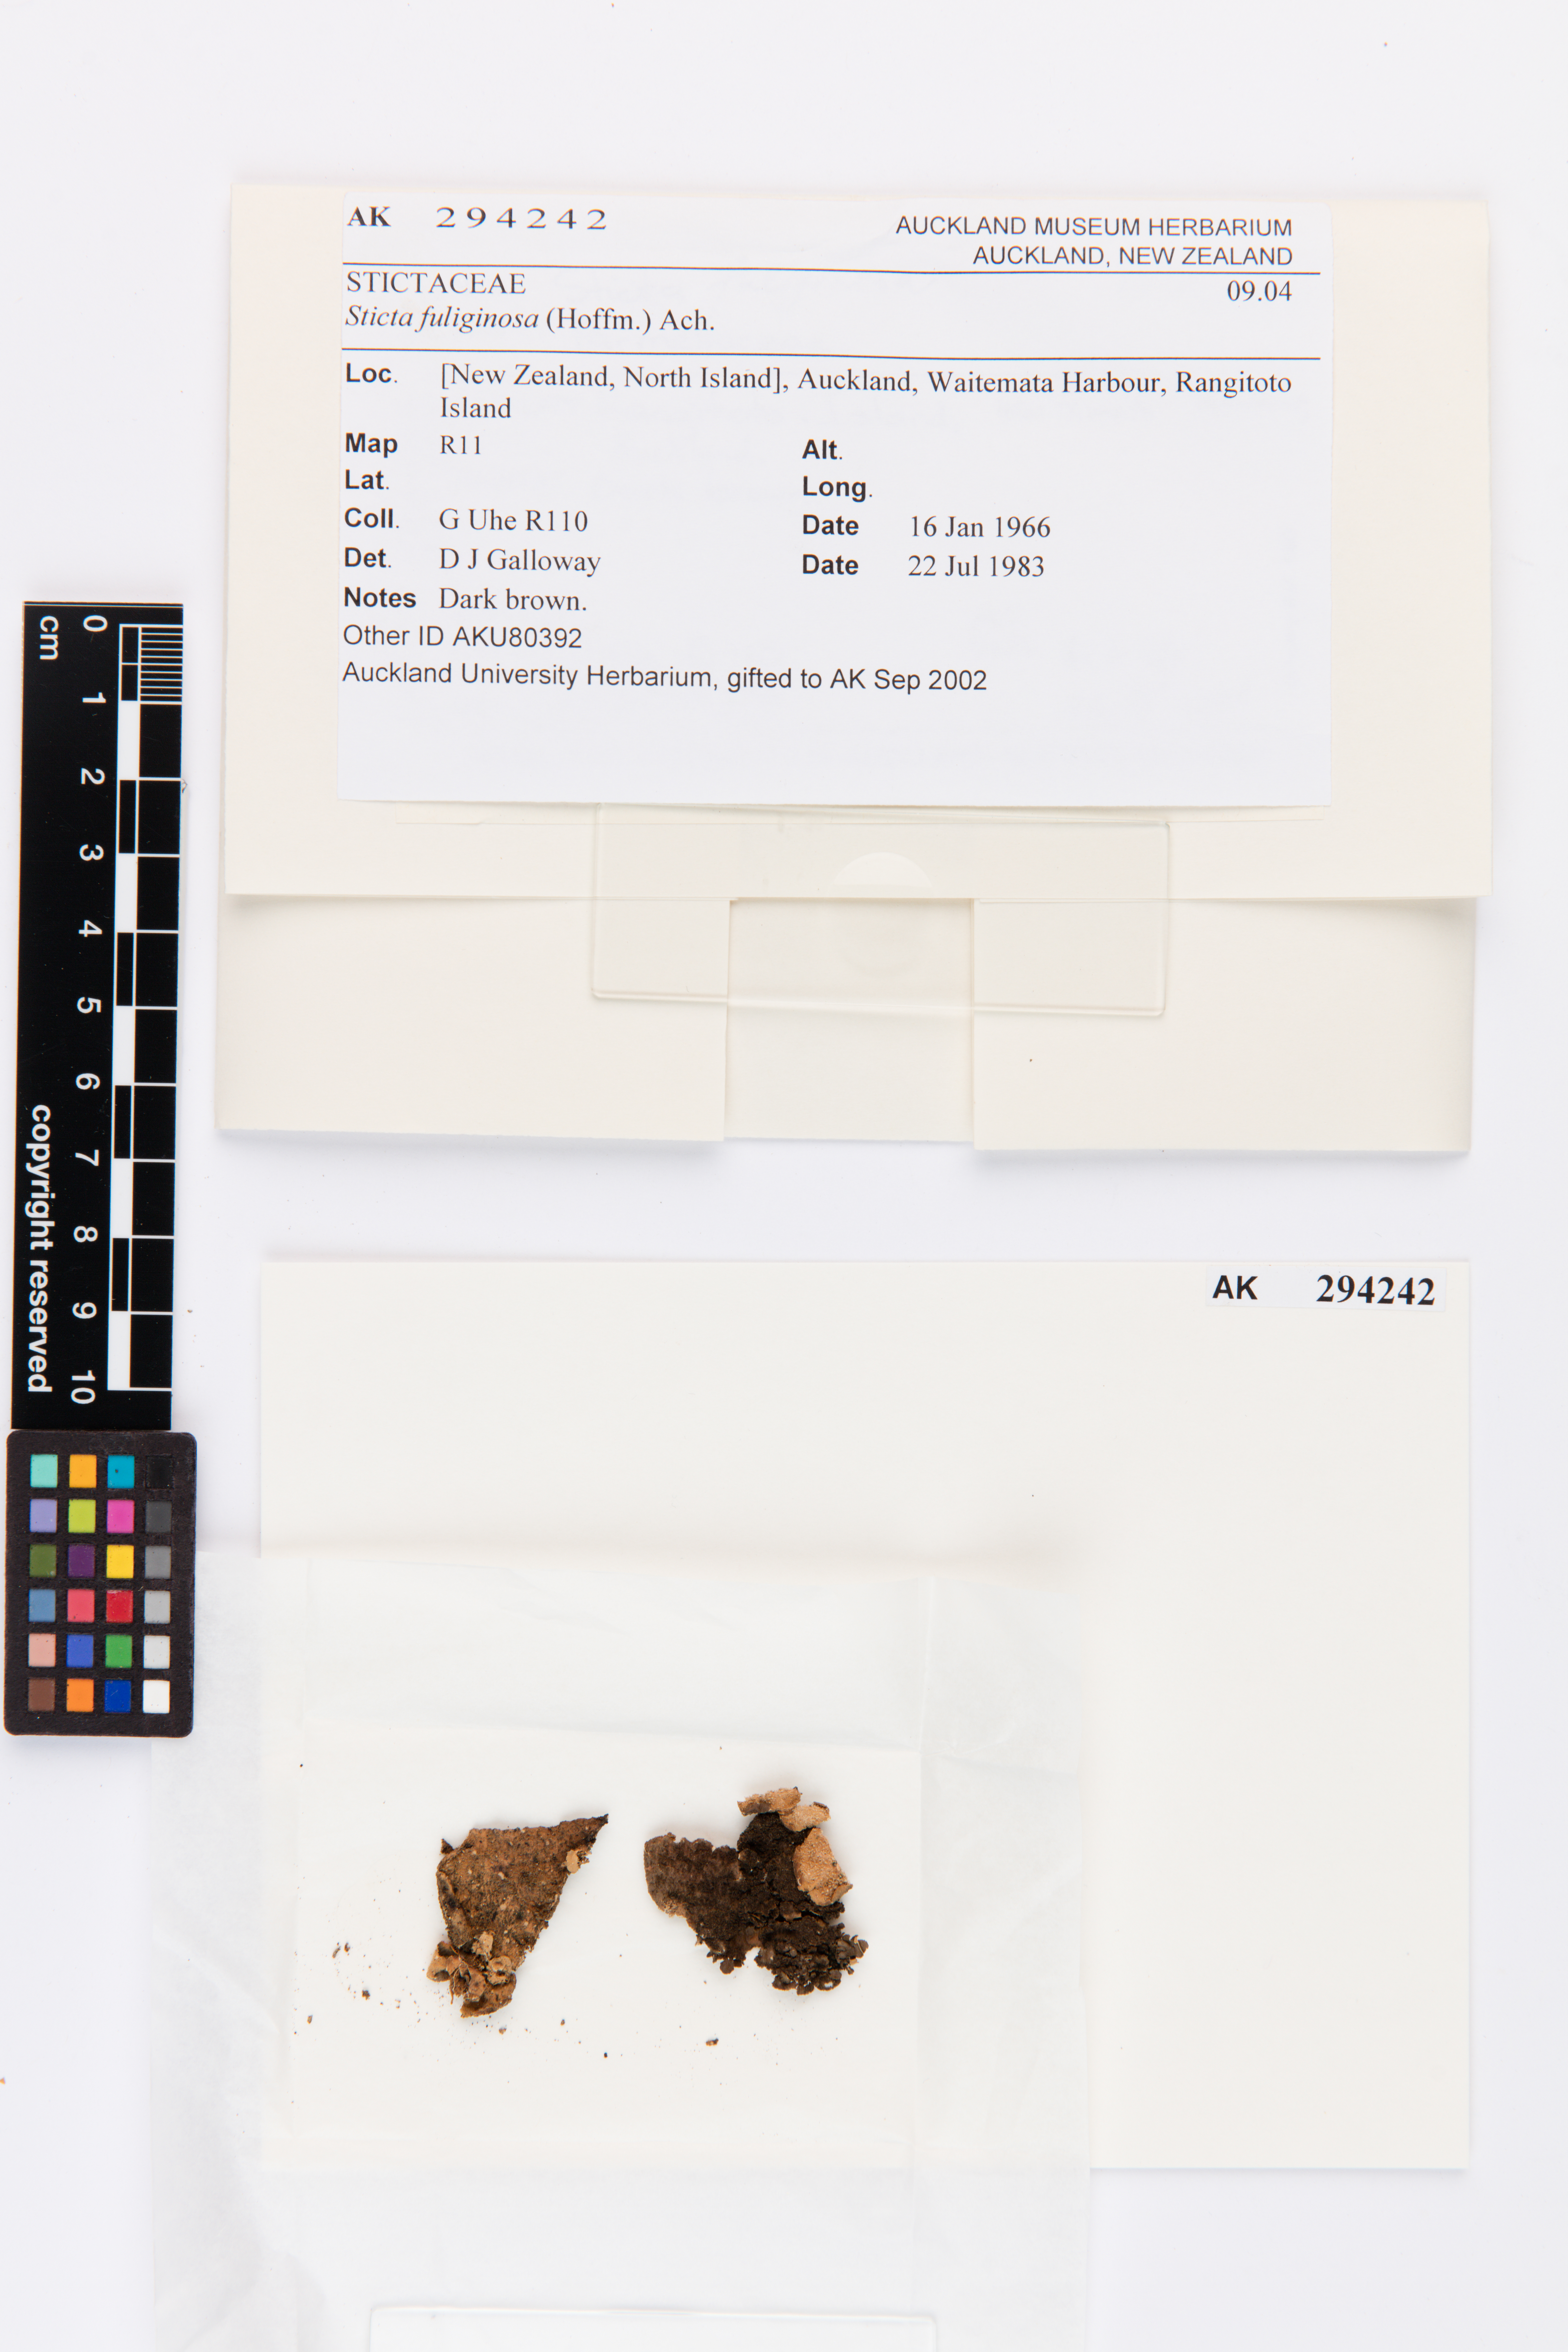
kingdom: Fungi
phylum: Ascomycota
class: Lecanoromycetes
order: Peltigerales
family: Lobariaceae
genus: Sticta
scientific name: Sticta fuliginosa
